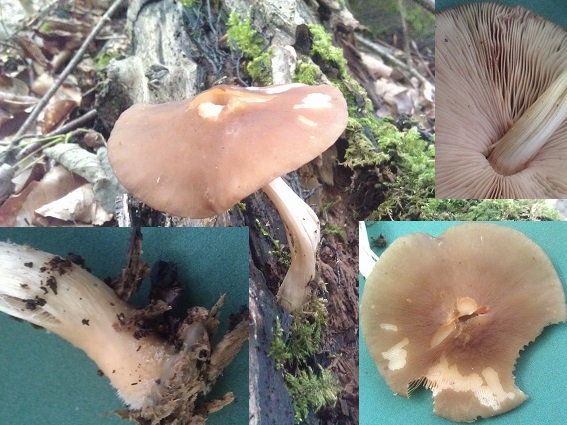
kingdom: Fungi
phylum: Basidiomycota
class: Agaricomycetes
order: Agaricales
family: Pluteaceae
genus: Pluteus
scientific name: Pluteus phlebophorus
